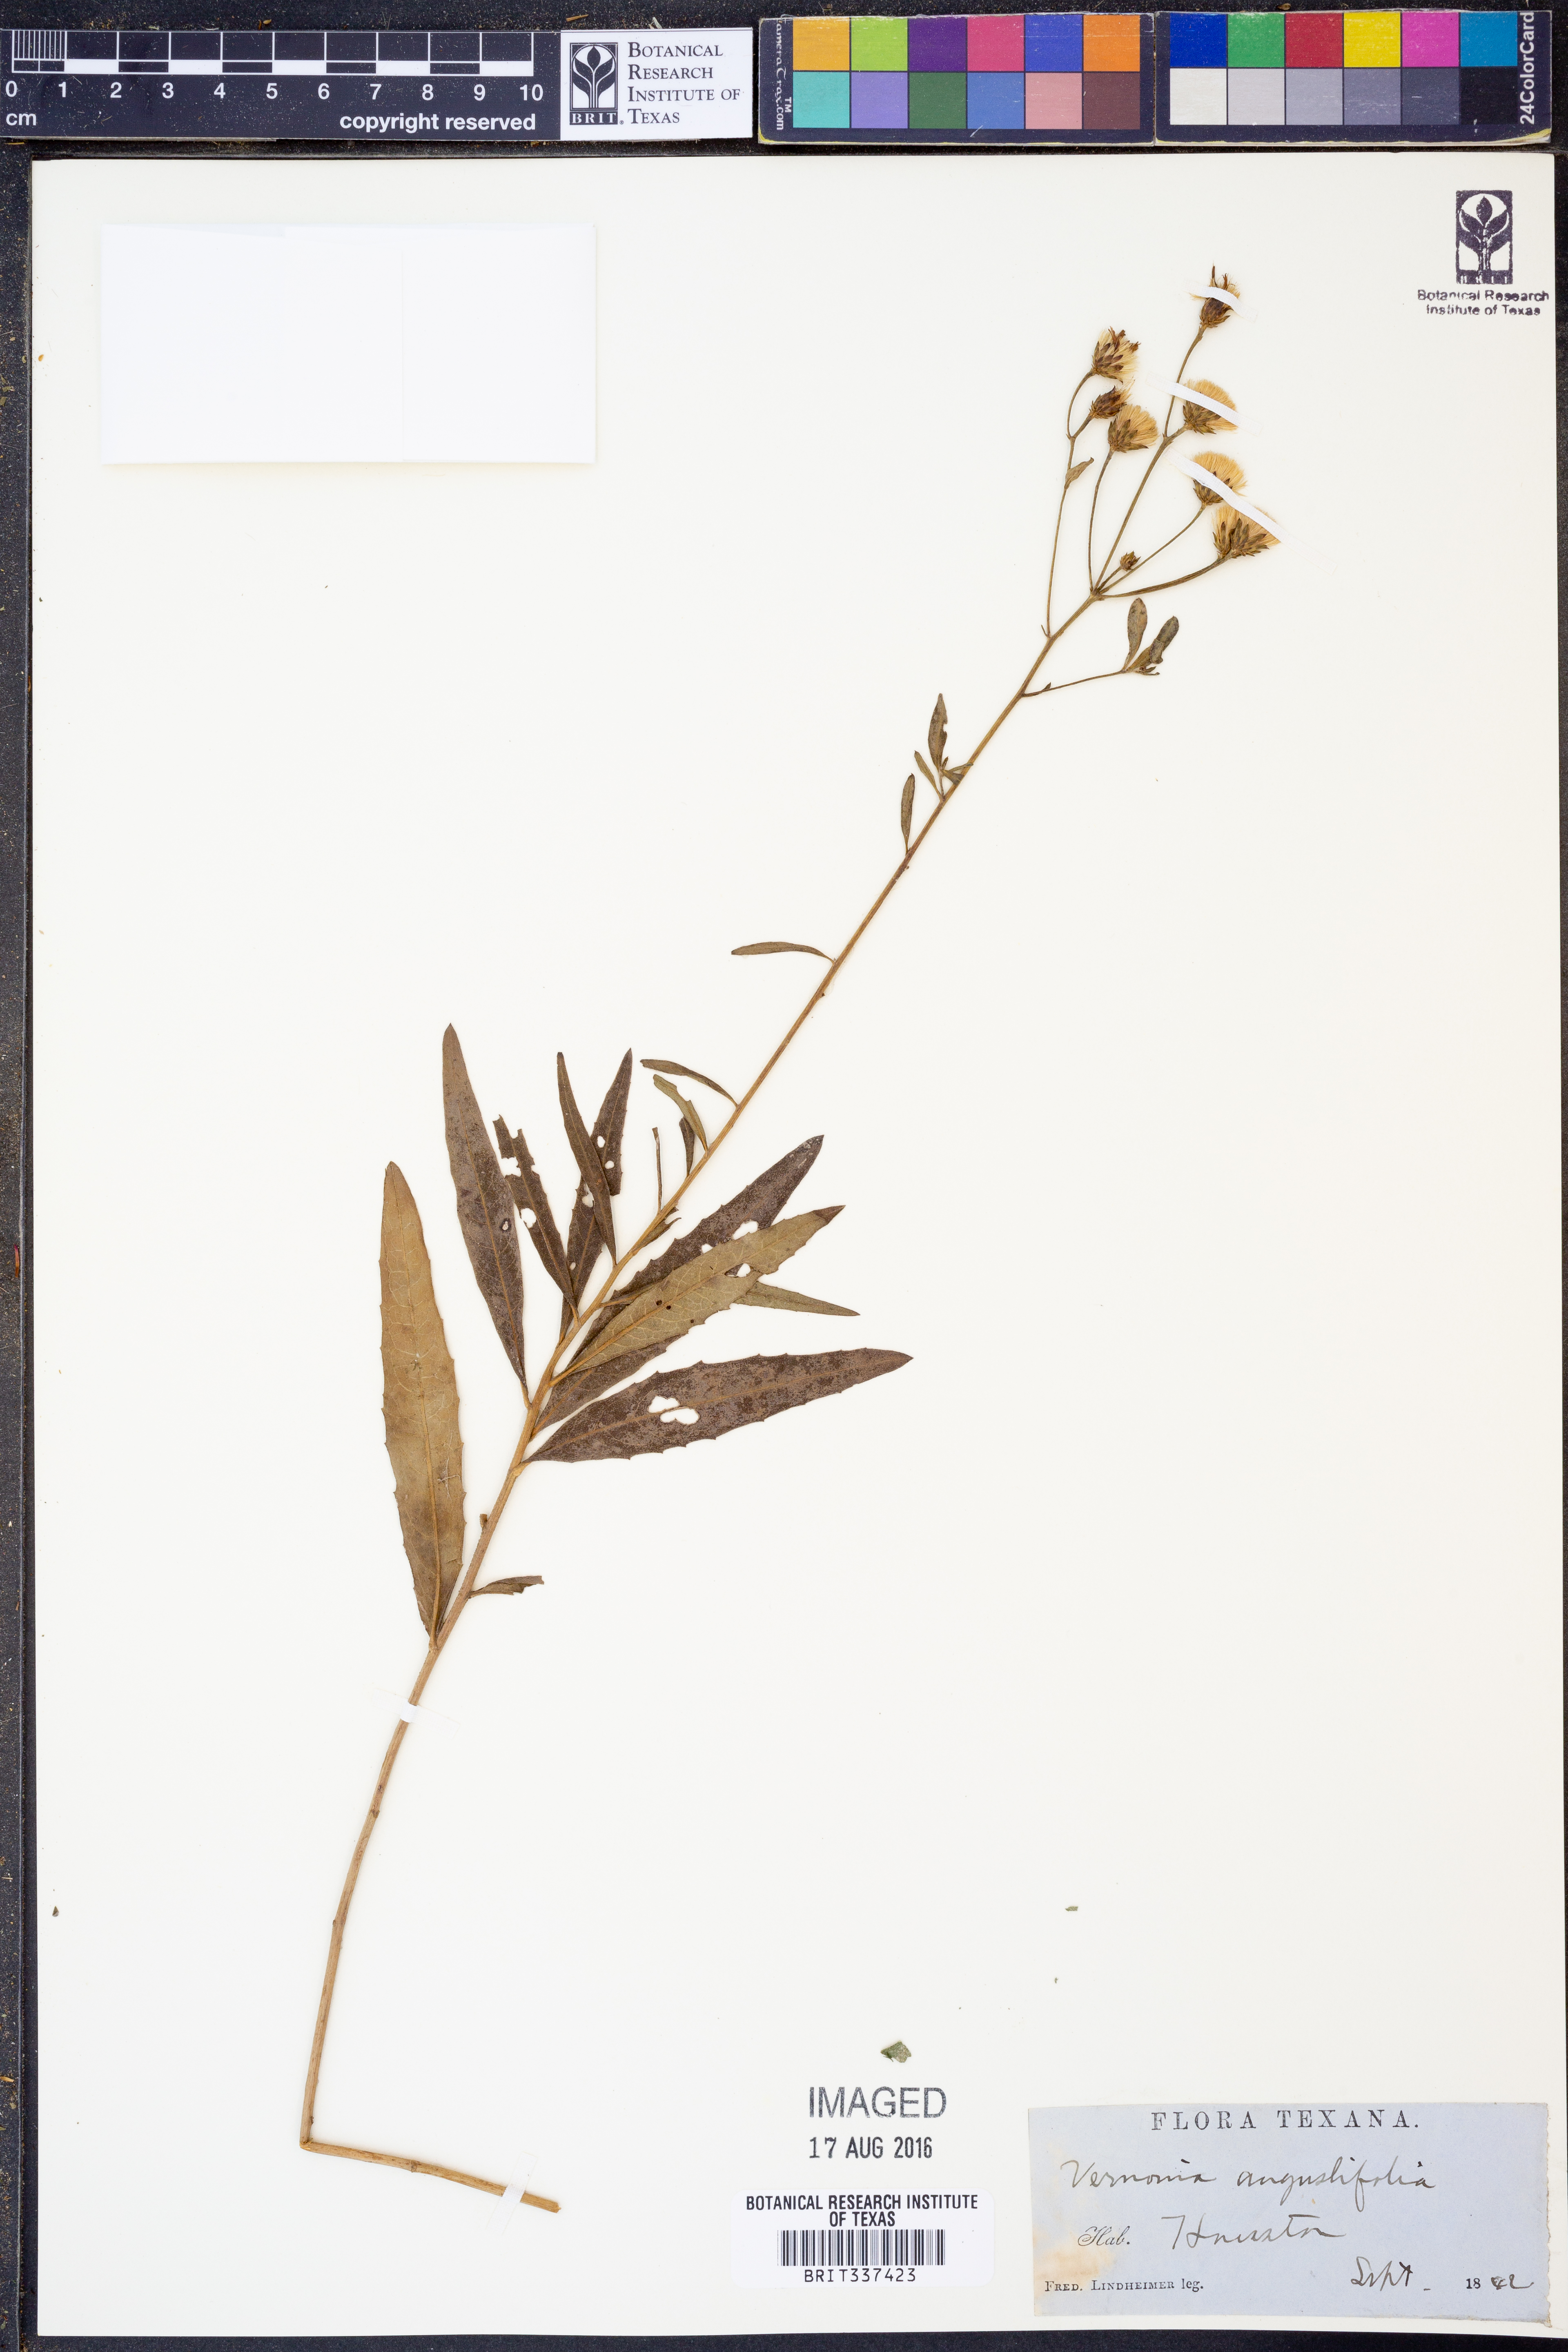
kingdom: Plantae
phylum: Tracheophyta
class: Magnoliopsida
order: Asterales
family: Asteraceae
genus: Vernonia
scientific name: Vernonia angustifolia
